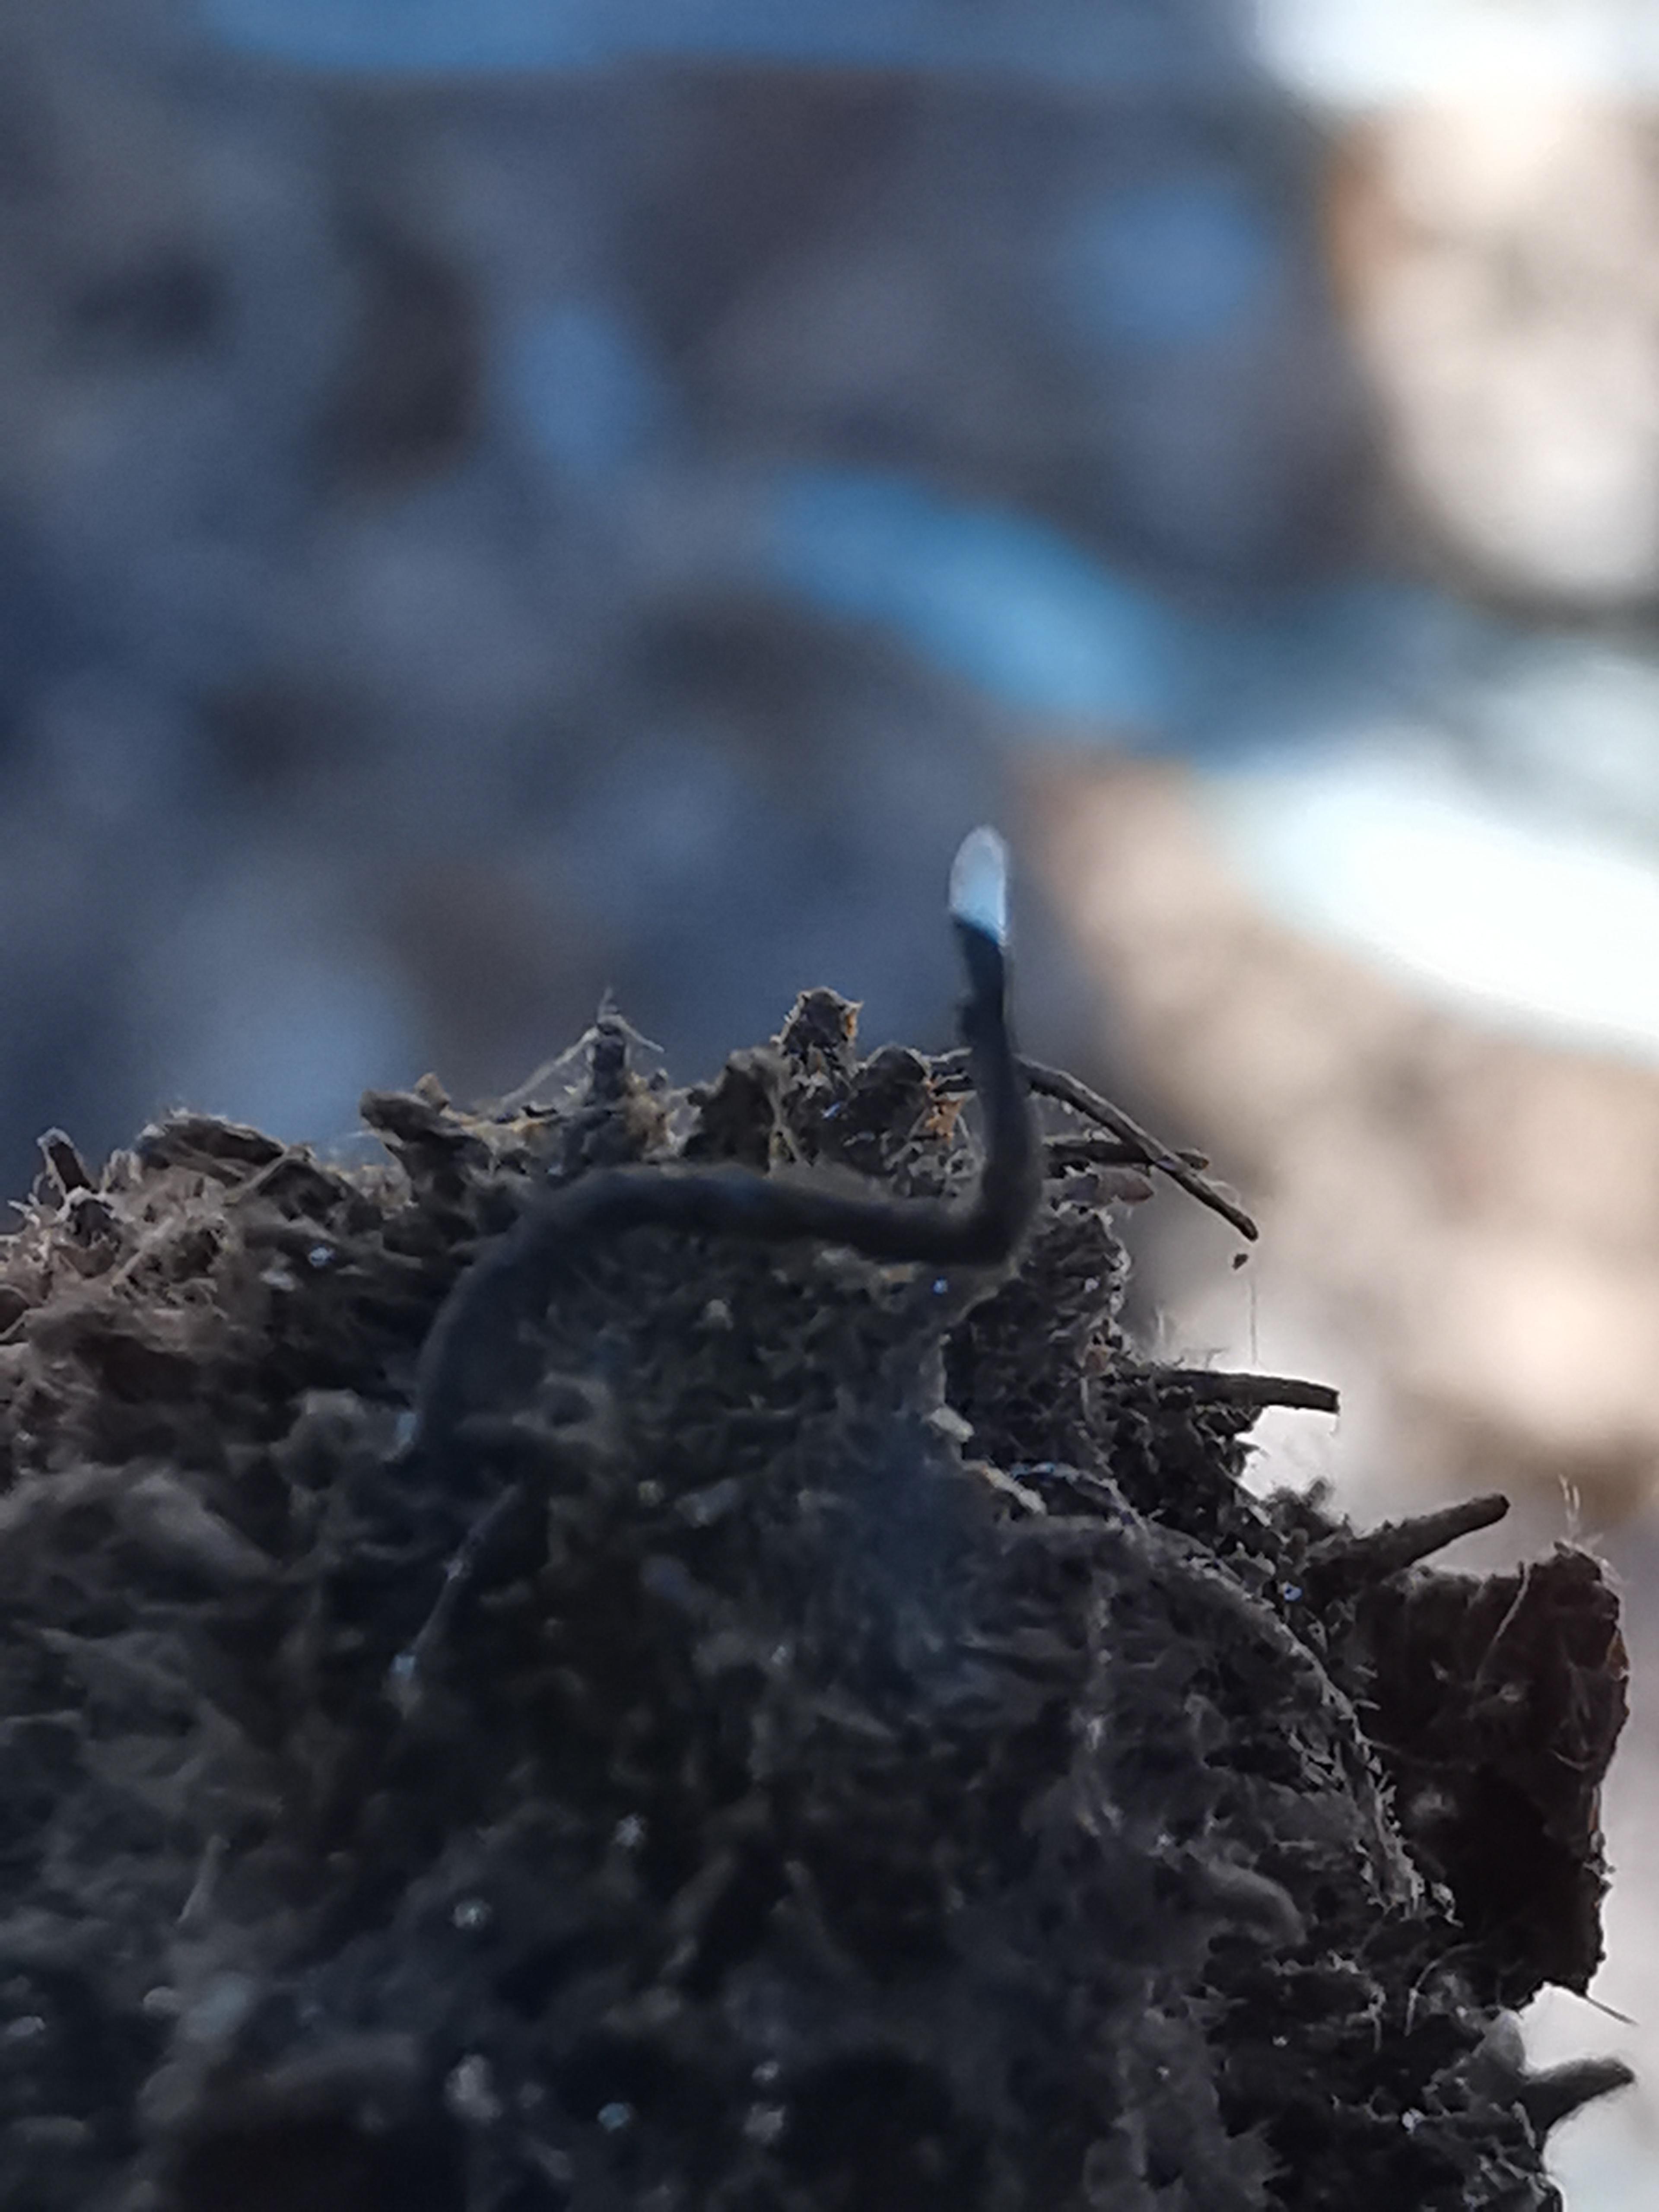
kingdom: Fungi
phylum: Ascomycota
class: Sordariomycetes
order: Xylariales
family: Xylariaceae
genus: Xylaria
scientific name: Xylaria carpophila
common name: bogskål-stødsvamp
